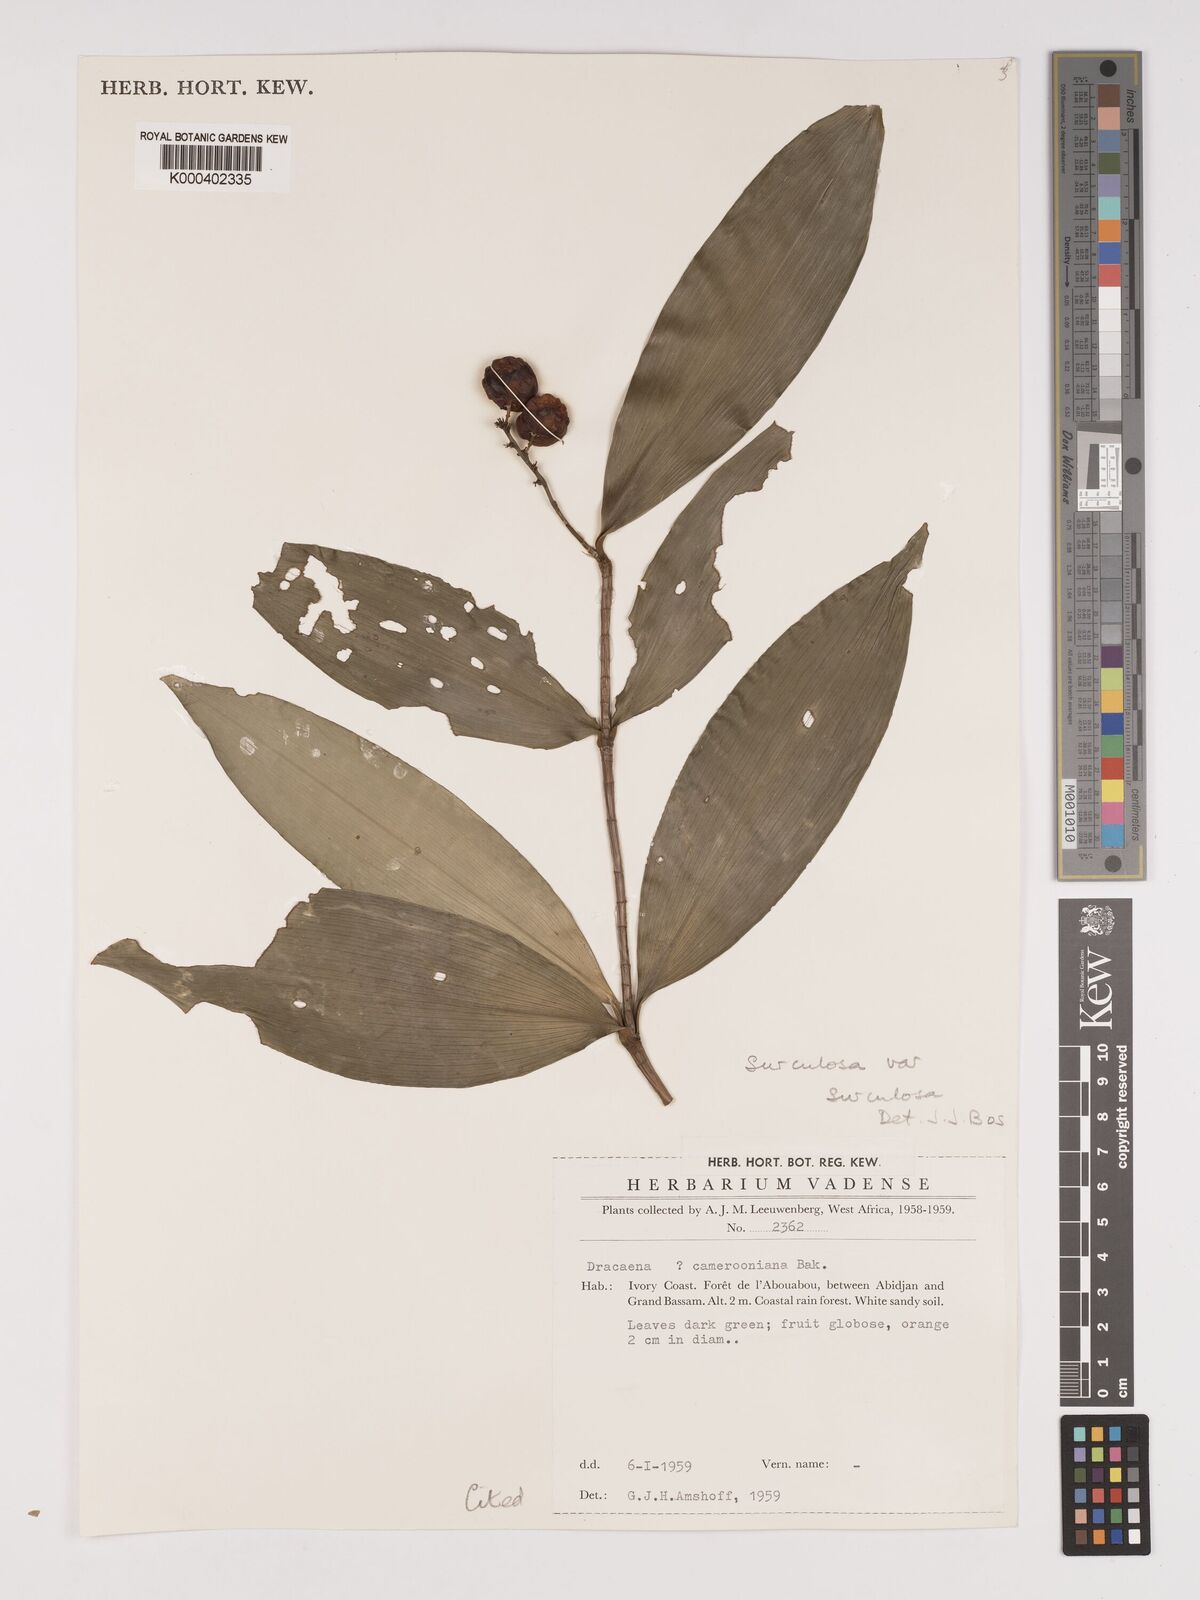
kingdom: Plantae
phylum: Tracheophyta
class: Liliopsida
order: Asparagales
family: Asparagaceae
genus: Dracaena
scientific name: Dracaena surculosa
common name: Spotted dracaena
